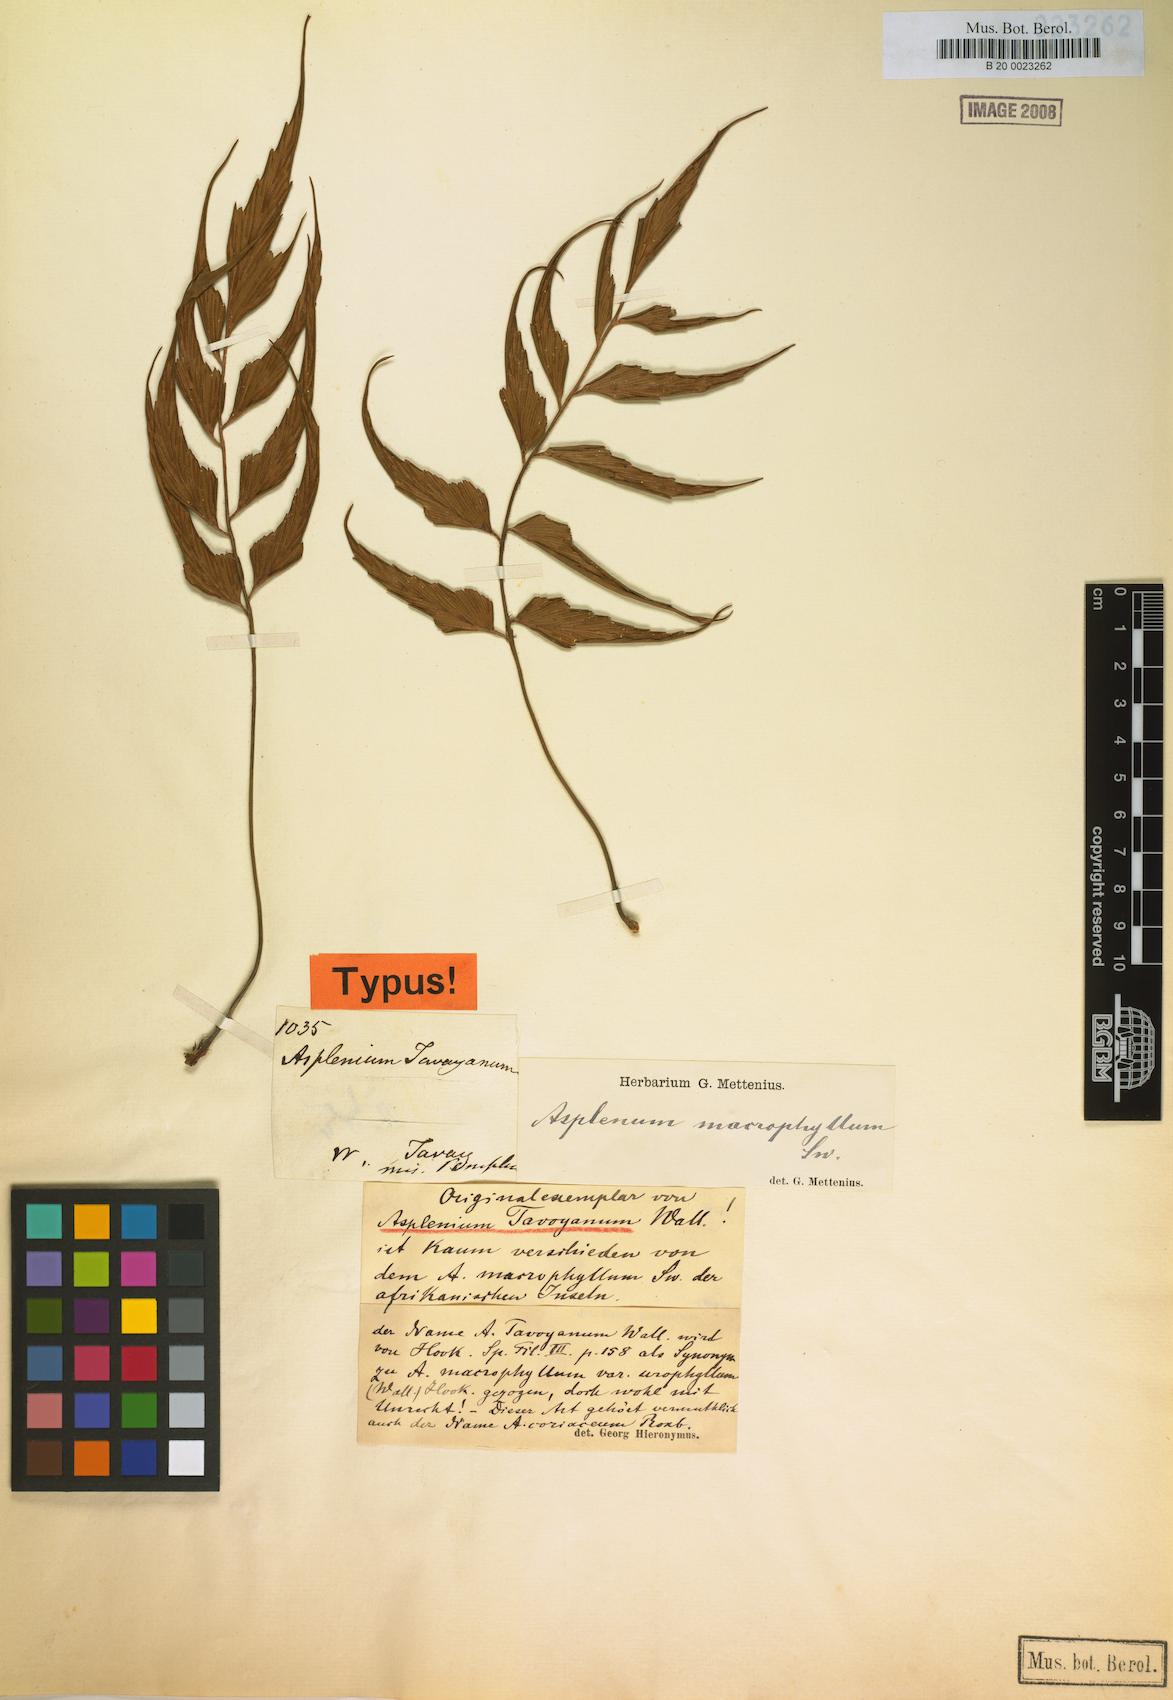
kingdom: Plantae
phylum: Tracheophyta
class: Polypodiopsida
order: Polypodiales
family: Aspleniaceae
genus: Asplenium
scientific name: Asplenium macrophyllum
